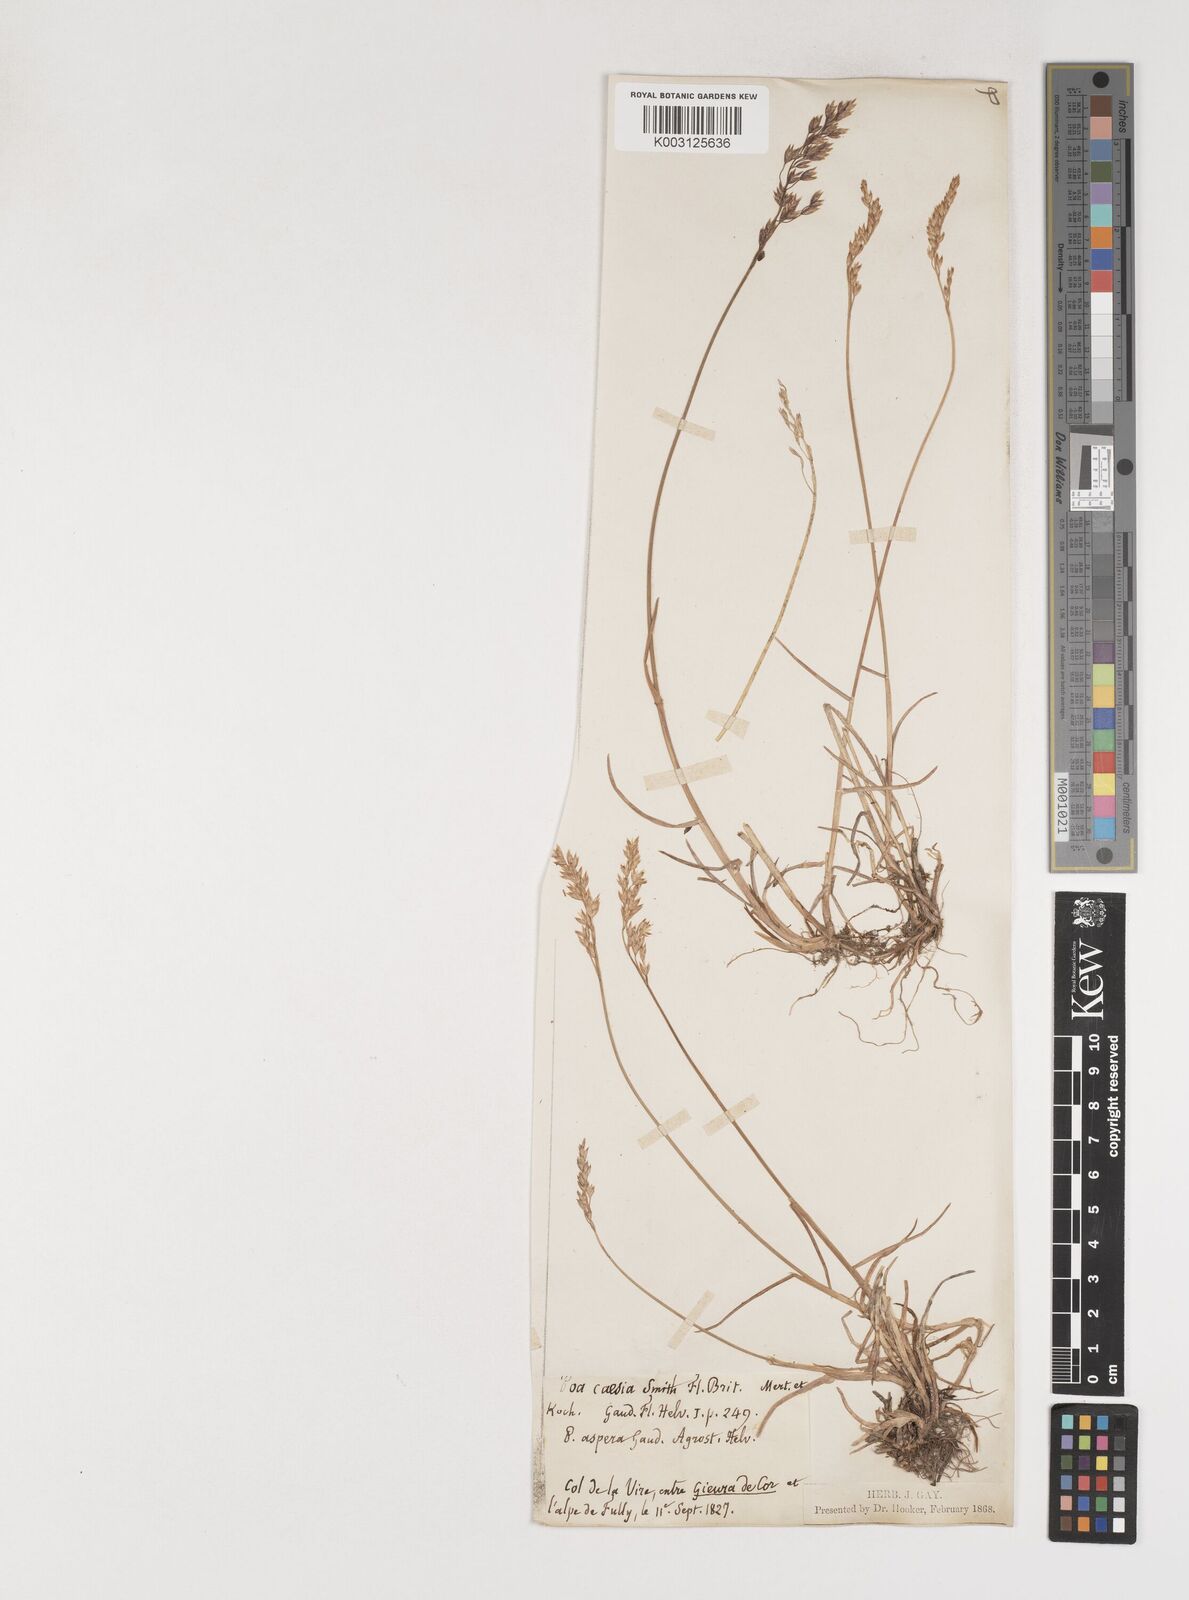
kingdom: Plantae
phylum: Tracheophyta
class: Liliopsida
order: Poales
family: Poaceae
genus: Poa
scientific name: Poa
